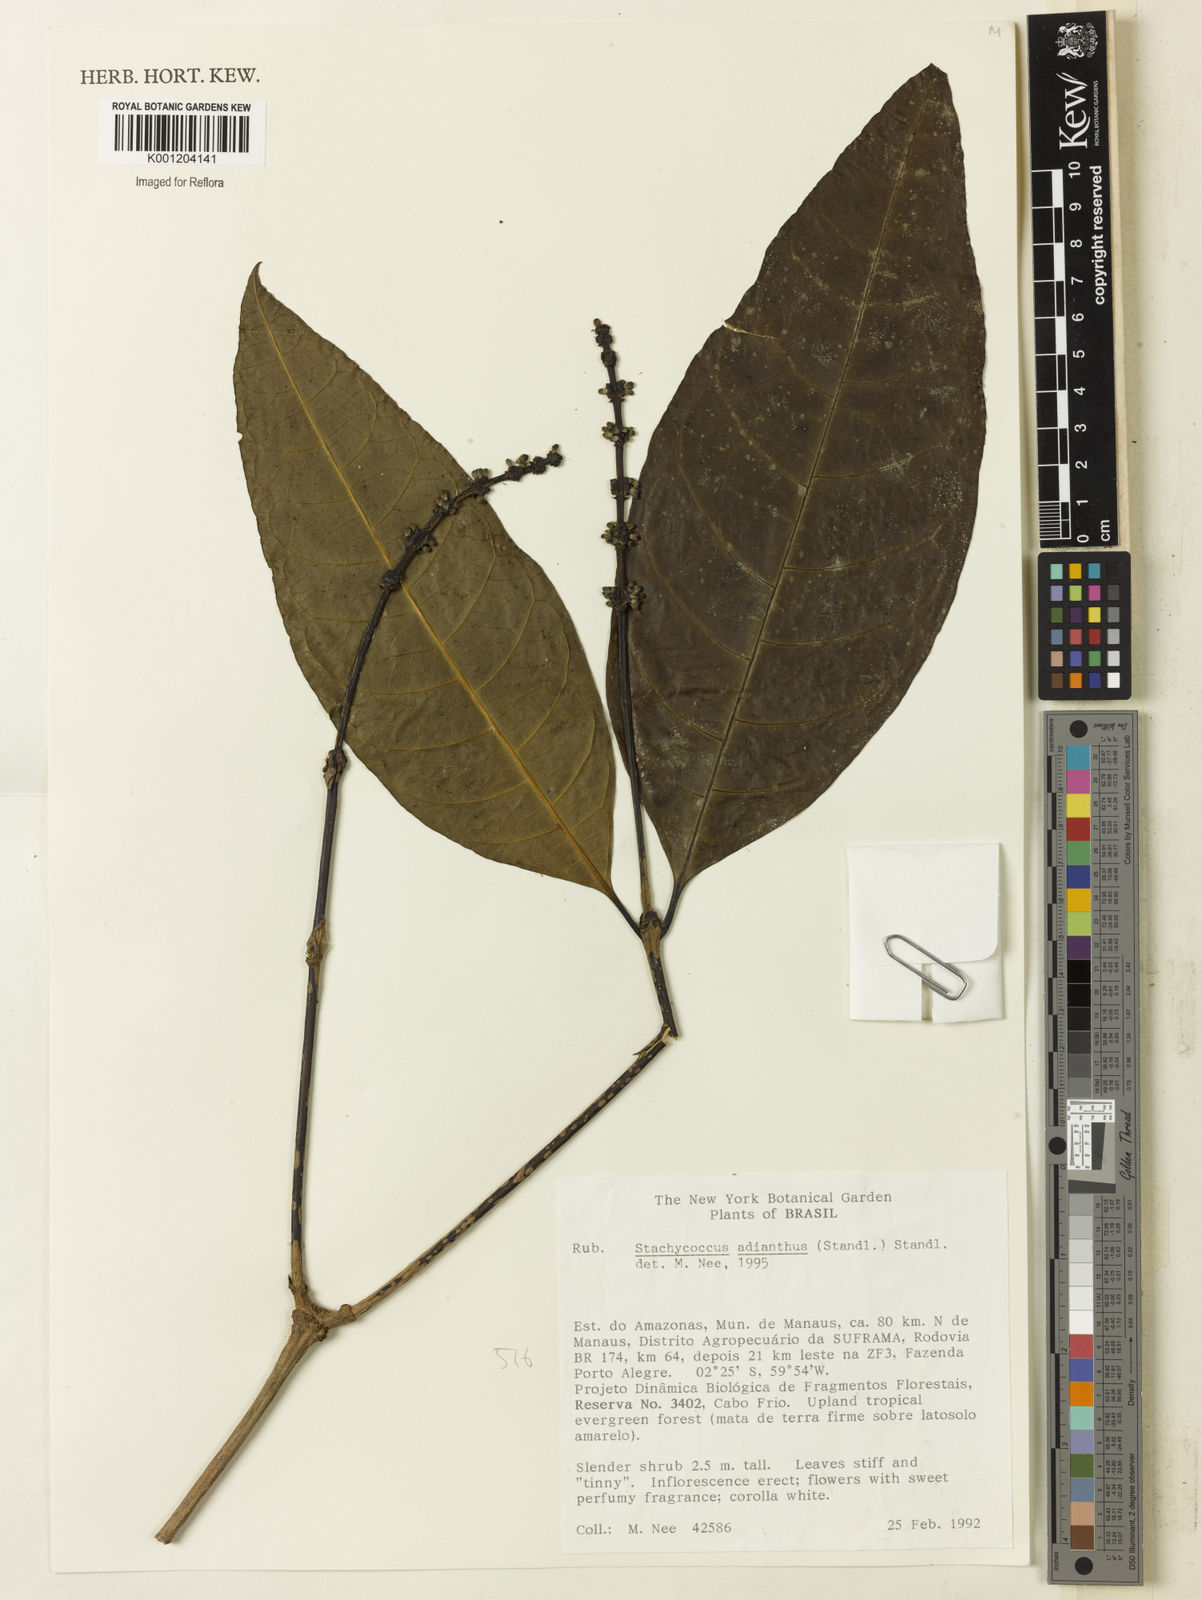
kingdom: Plantae
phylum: Tracheophyta
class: Magnoliopsida
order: Gentianales
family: Rubiaceae
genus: Carapichea
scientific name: Carapichea adinantha
